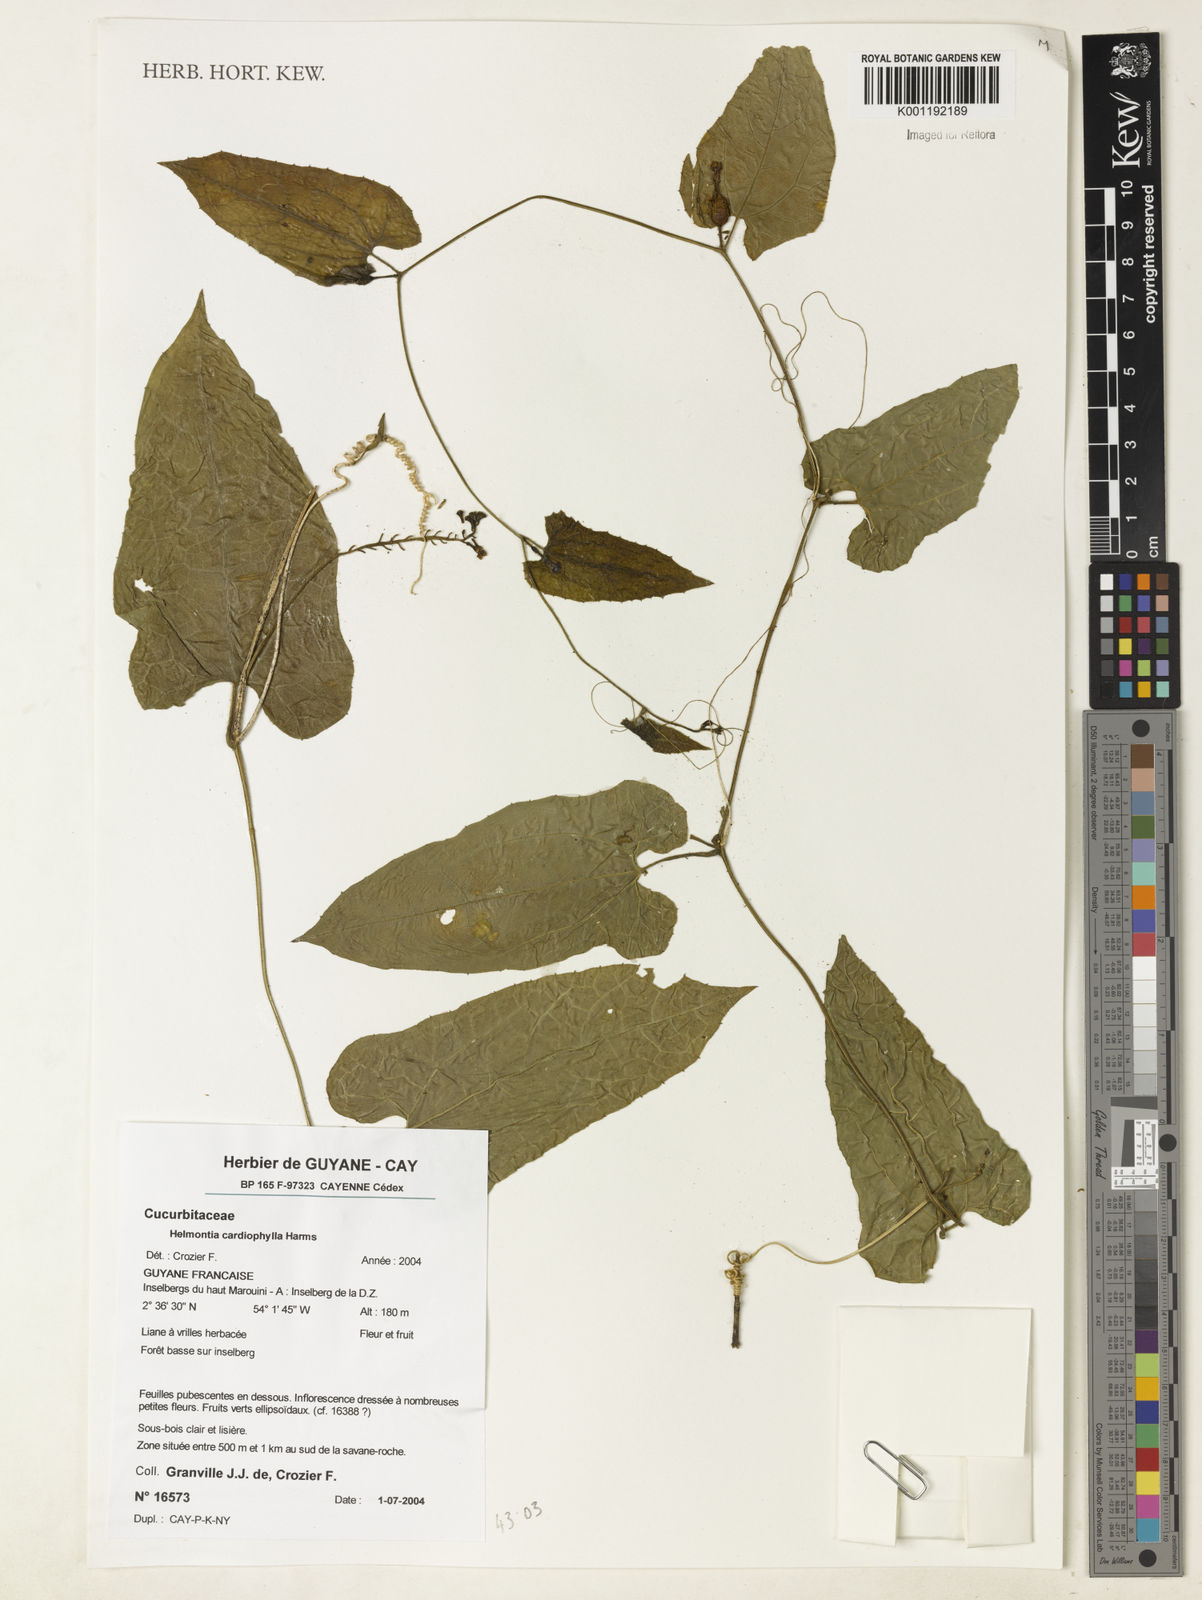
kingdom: Plantae
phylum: Tracheophyta
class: Magnoliopsida
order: Cucurbitales
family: Cucurbitaceae
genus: Helmontia
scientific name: Helmontia cardiophylla
